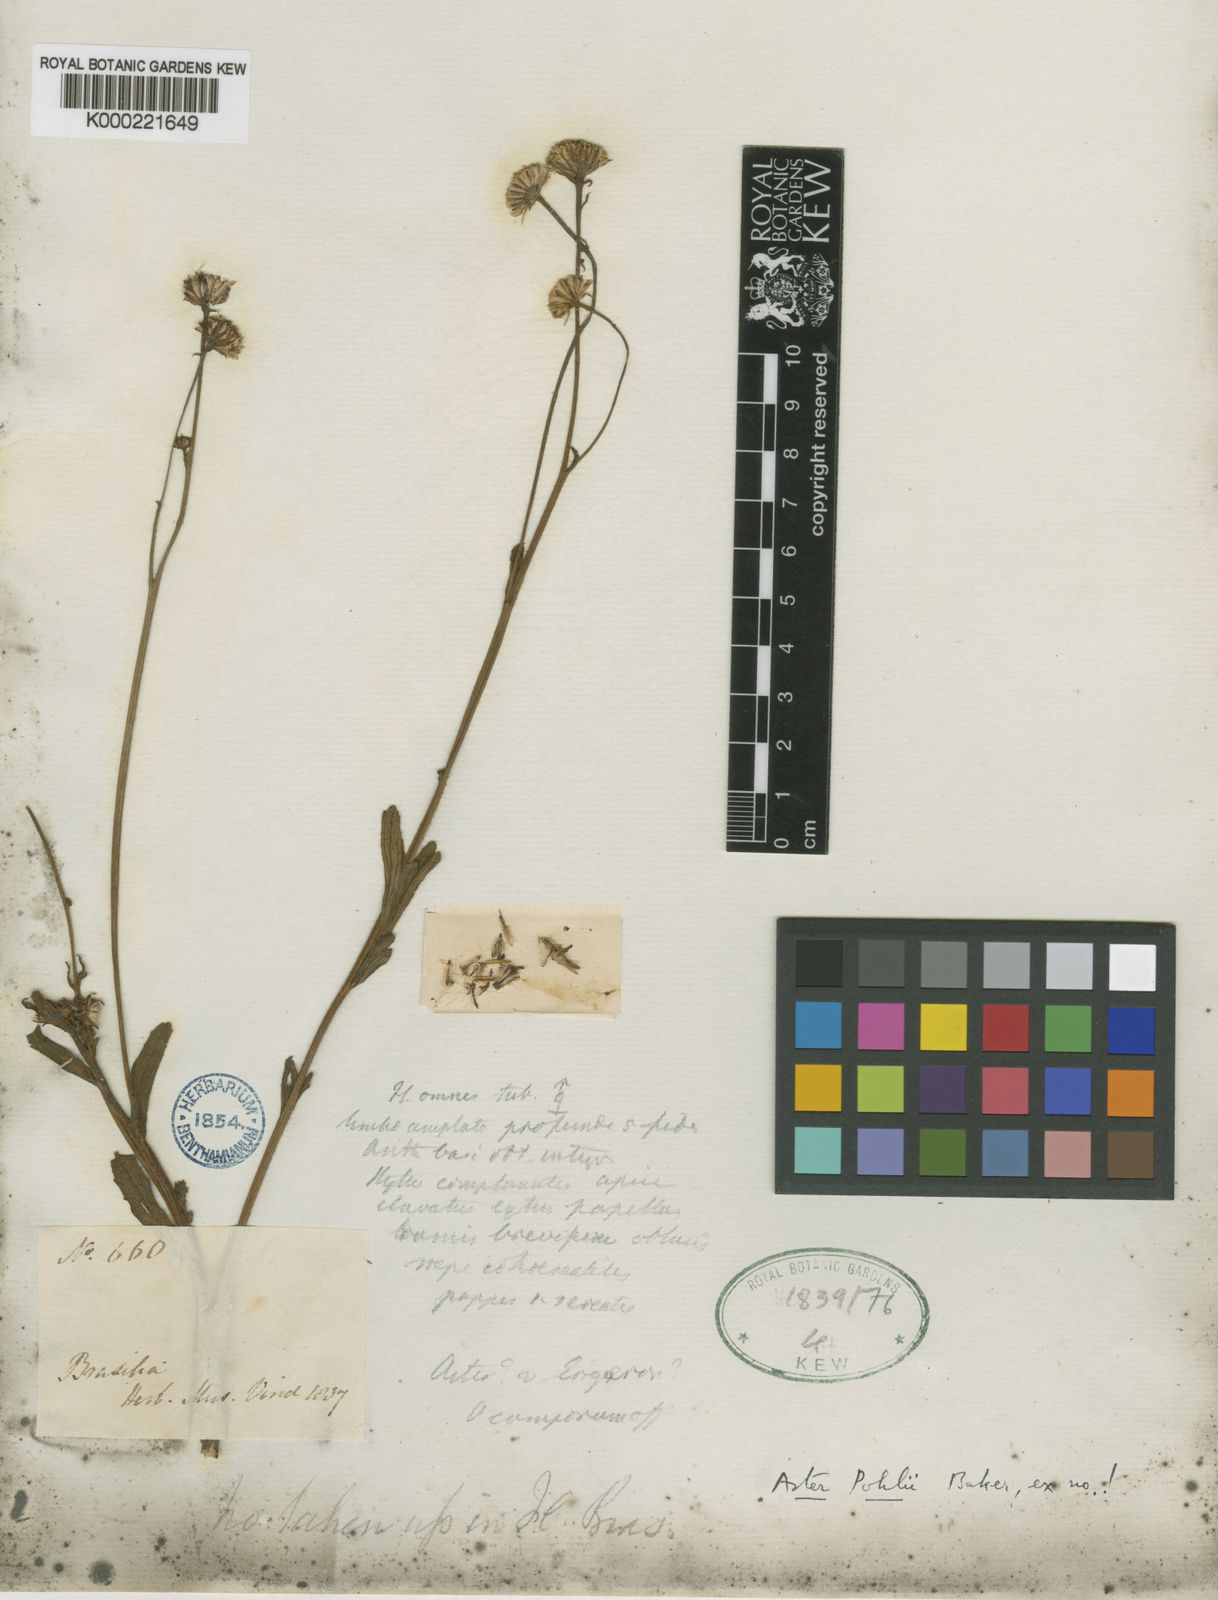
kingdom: Plantae
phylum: Tracheophyta
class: Magnoliopsida
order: Asterales
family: Asteraceae
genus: Baccharis
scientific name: Baccharis pohlii
